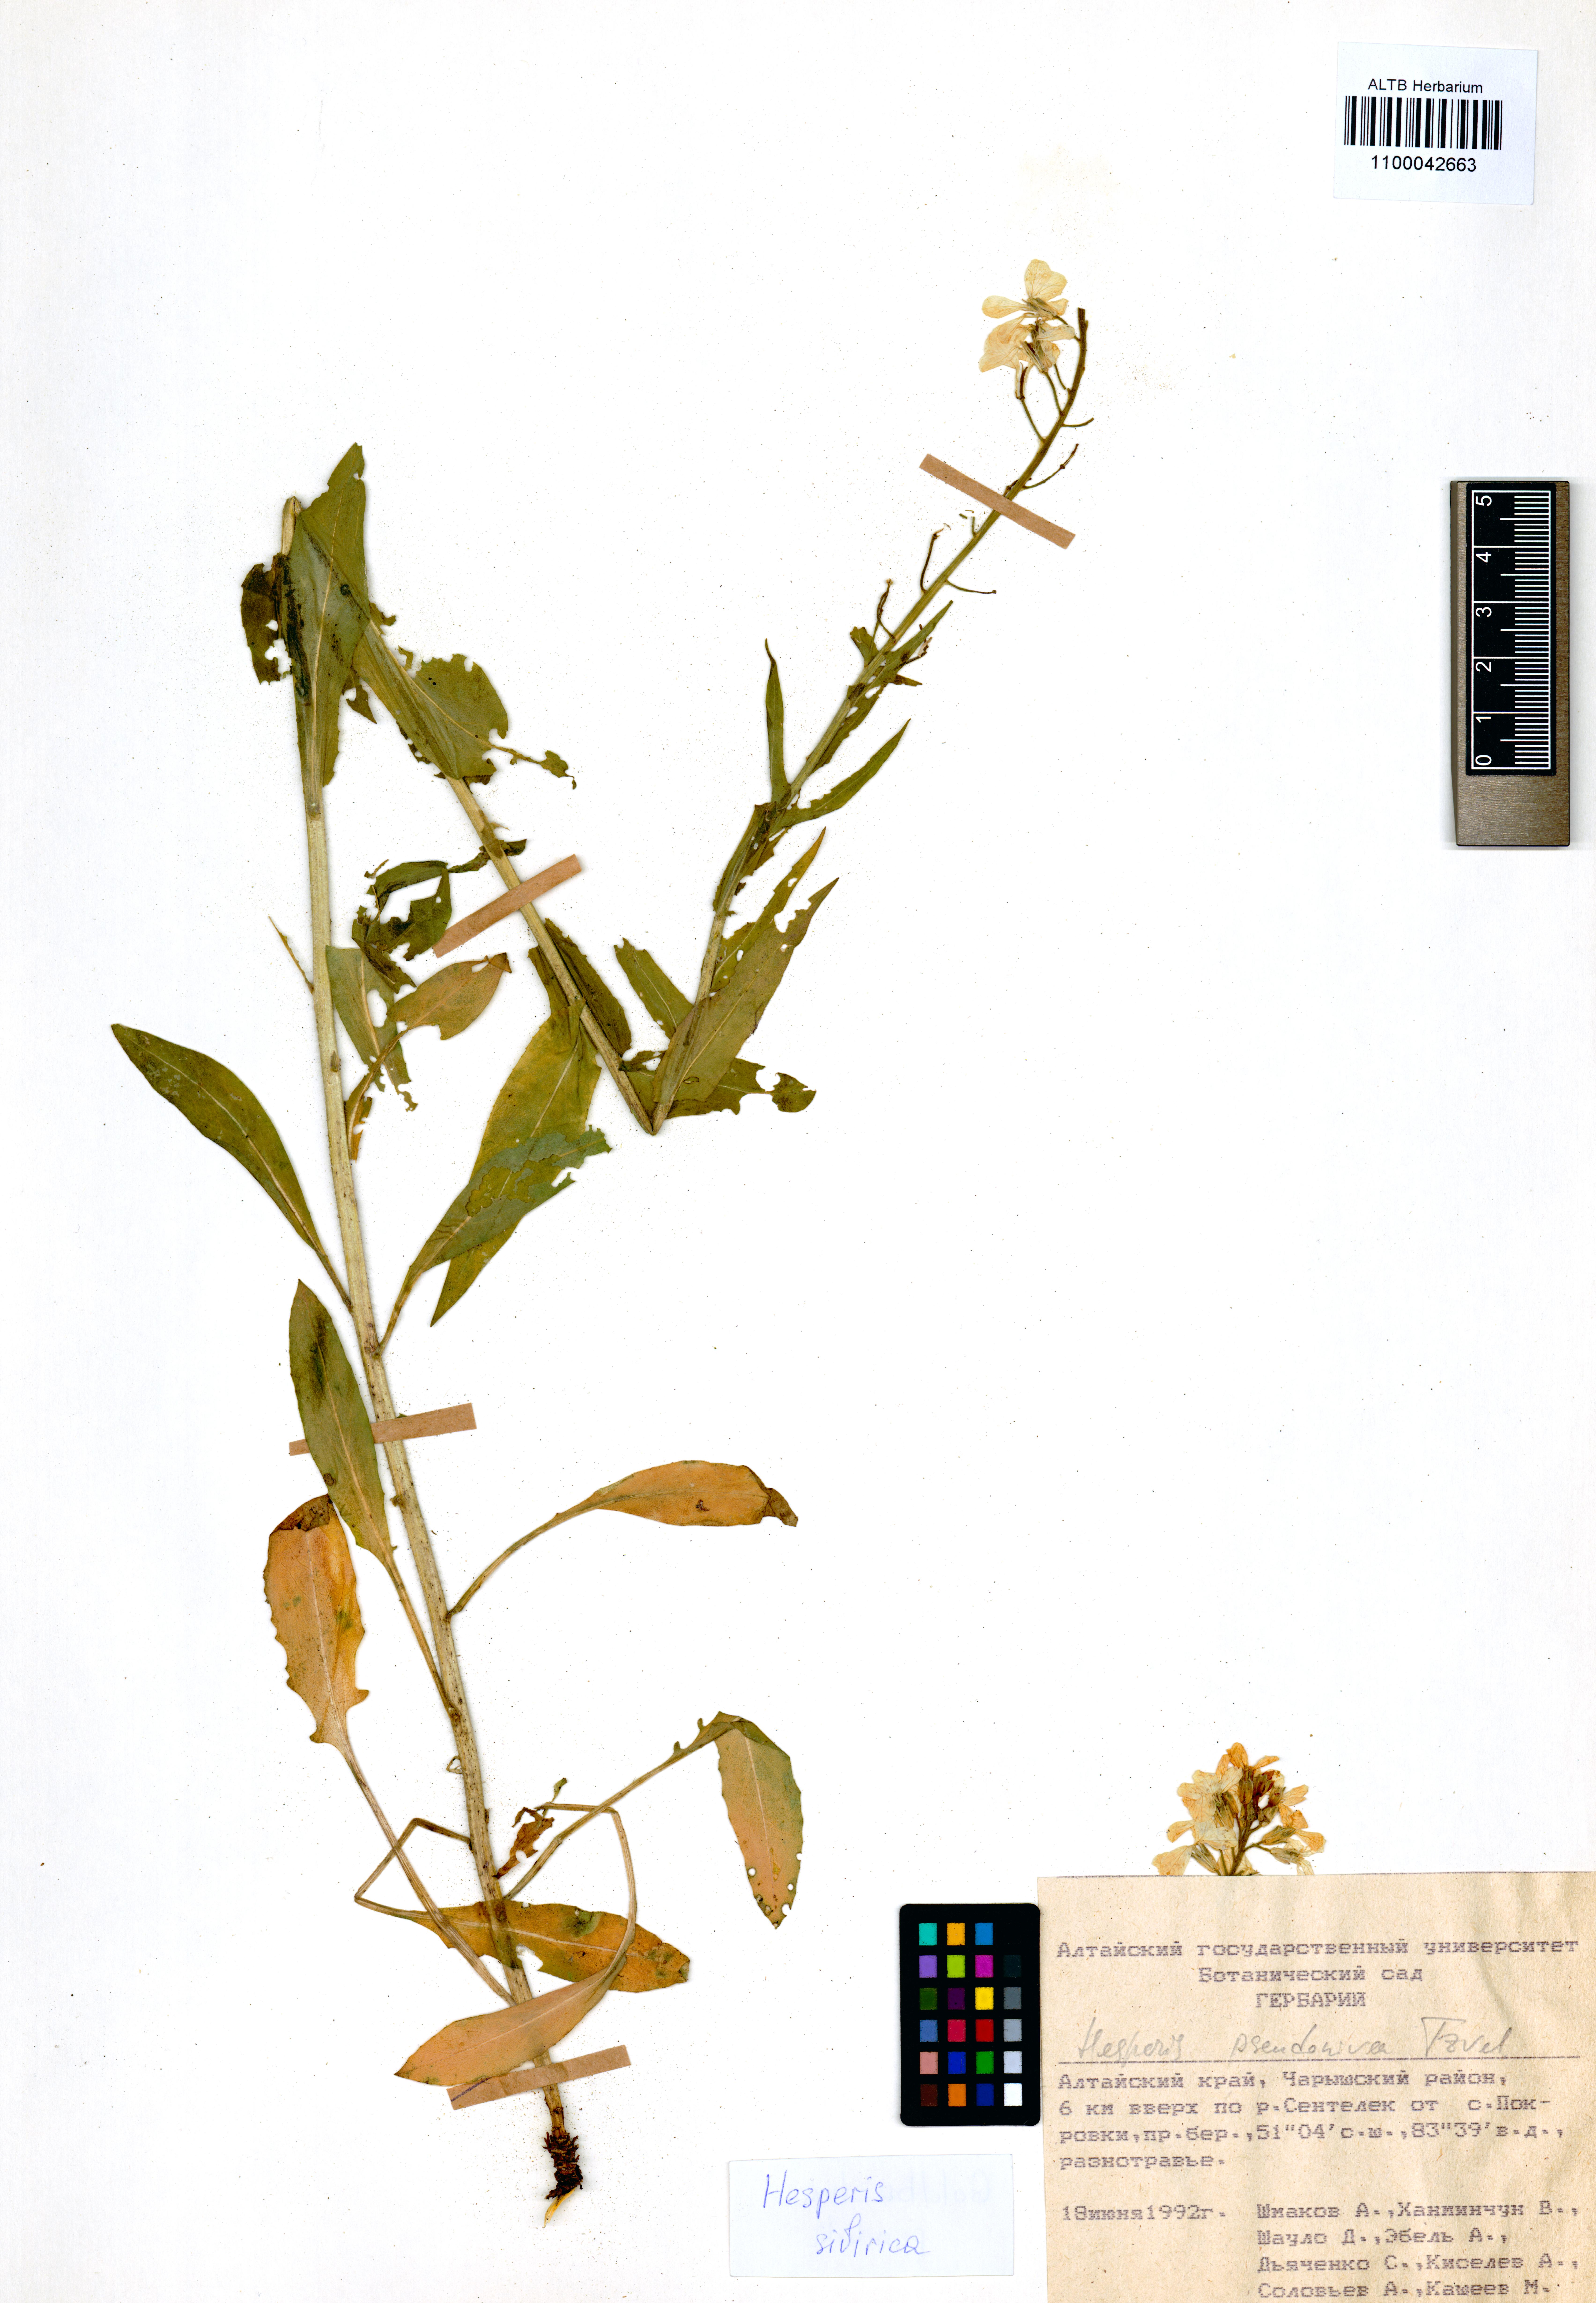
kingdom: Plantae
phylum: Tracheophyta
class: Magnoliopsida
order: Brassicales
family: Brassicaceae
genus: Hesperis
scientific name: Hesperis sibirica
